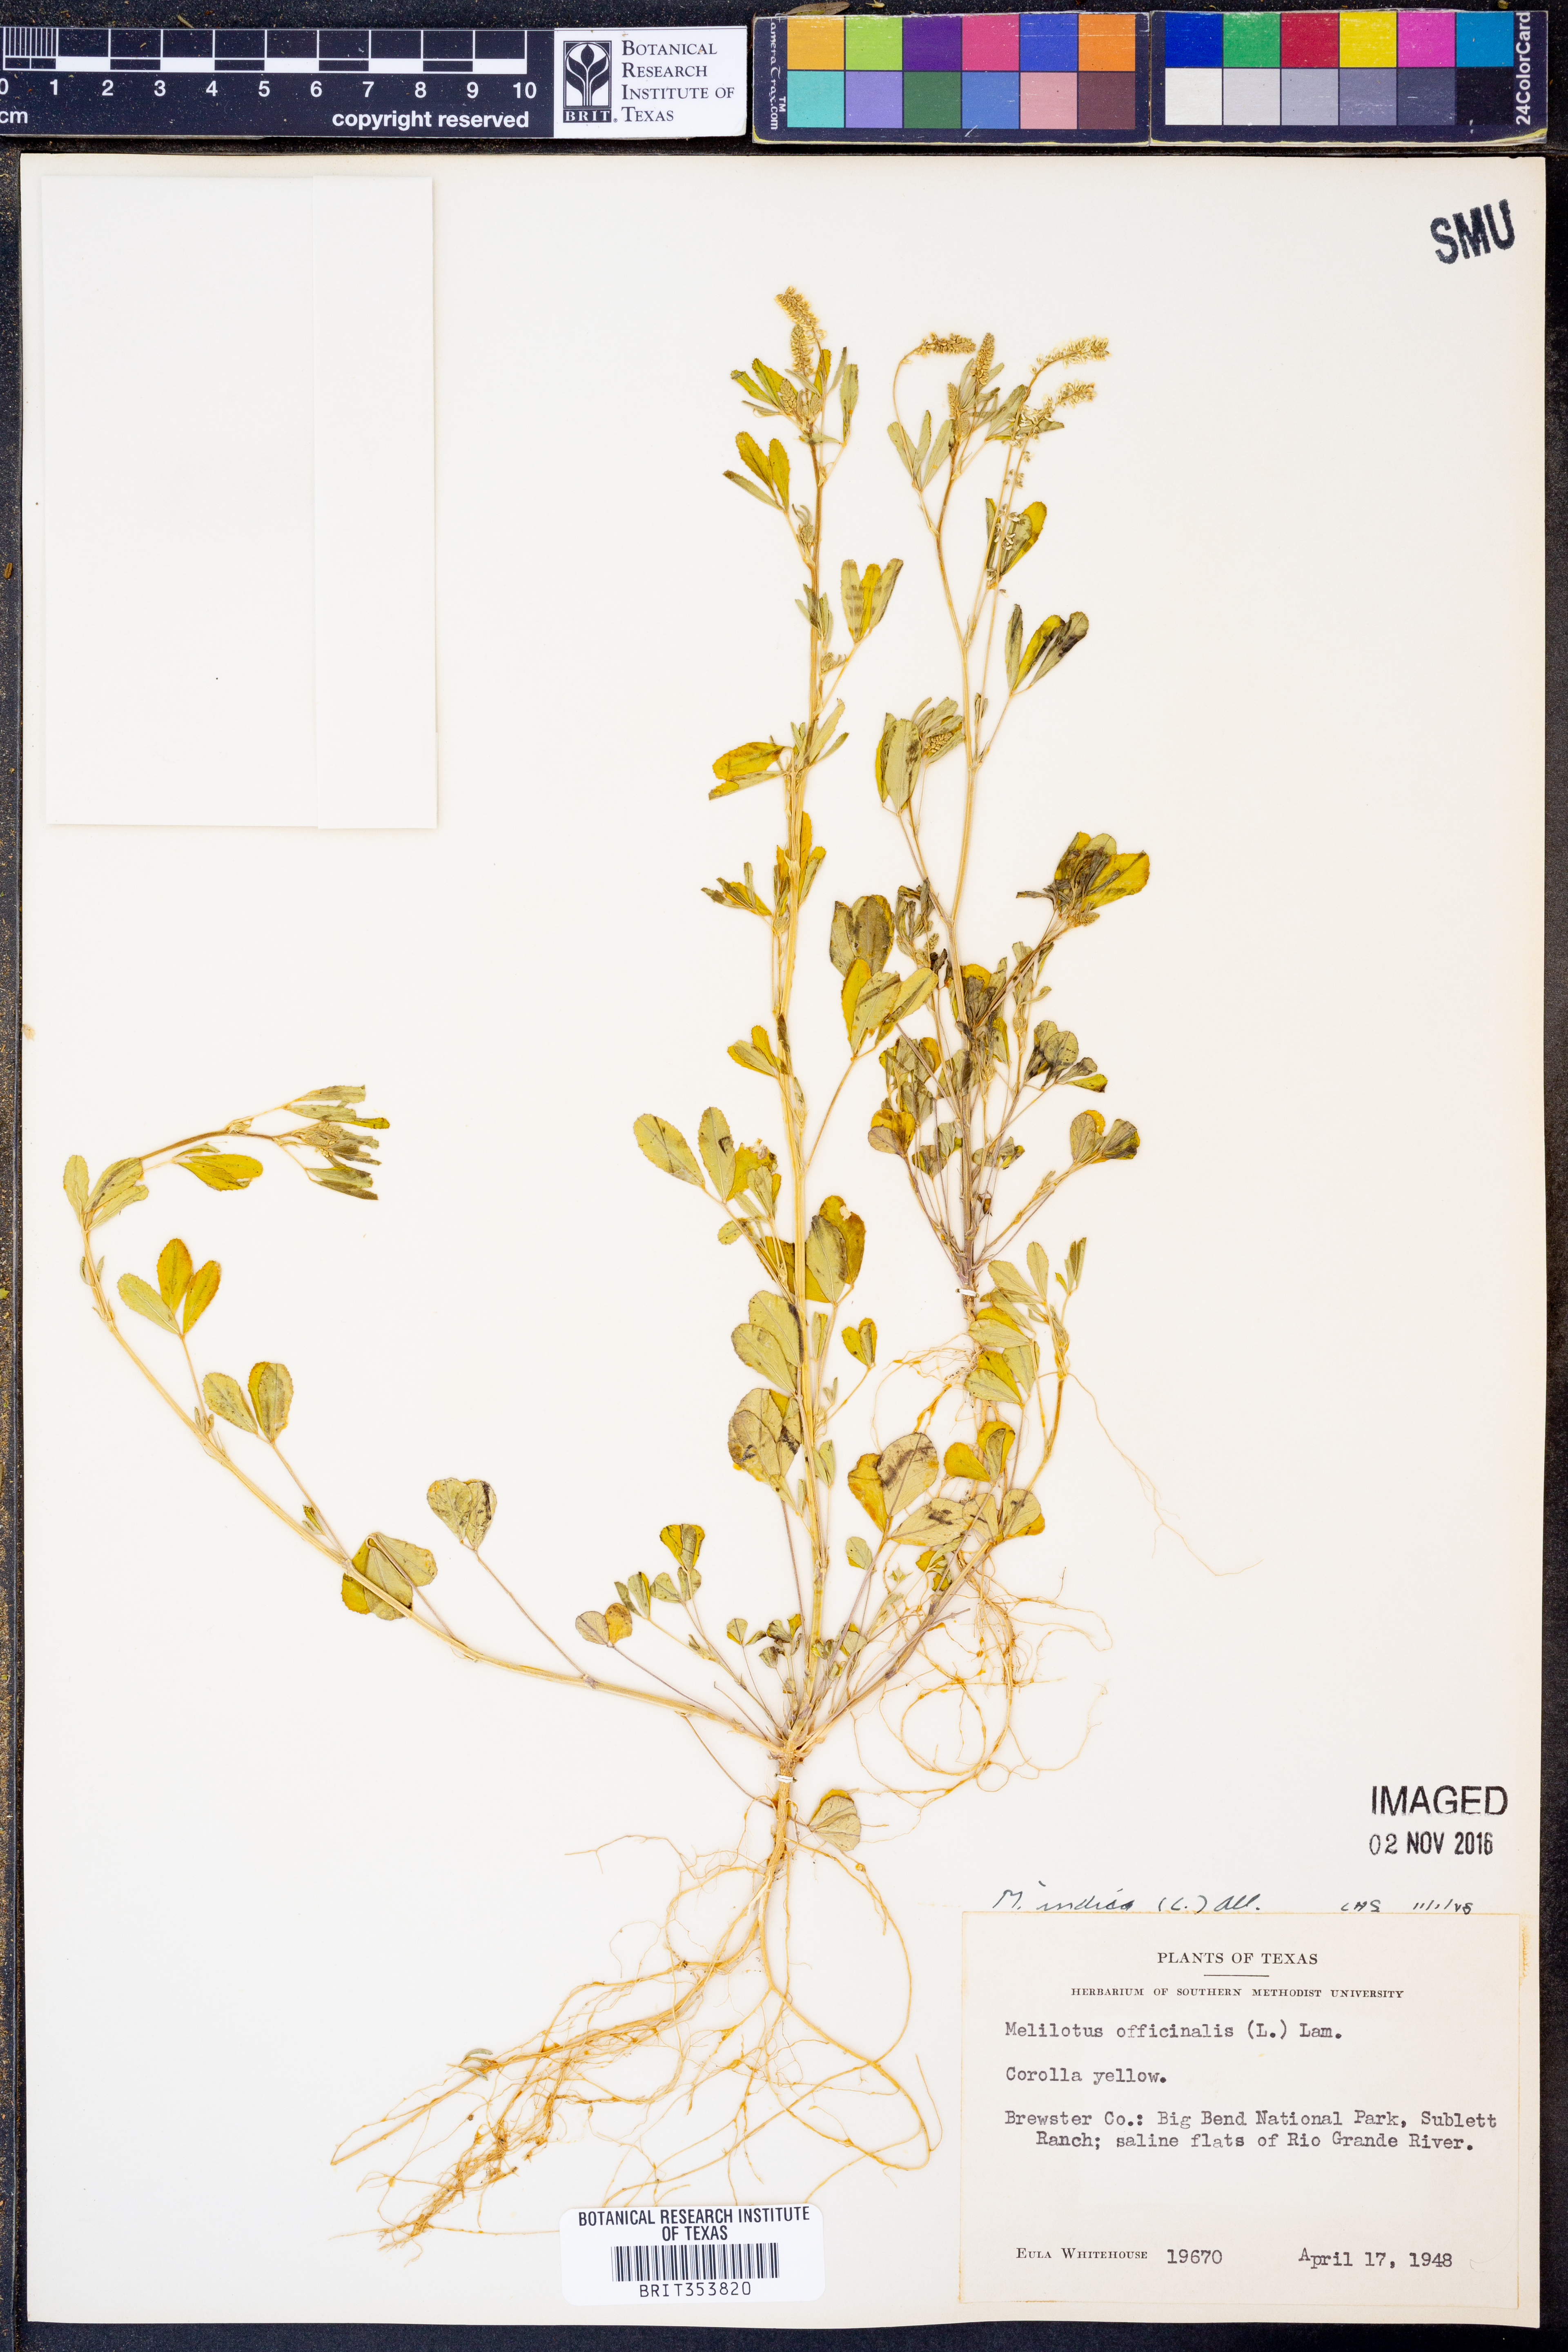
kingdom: Plantae
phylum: Tracheophyta
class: Magnoliopsida
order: Fabales
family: Fabaceae
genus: Melilotus
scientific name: Melilotus indicus
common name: Small melilot
